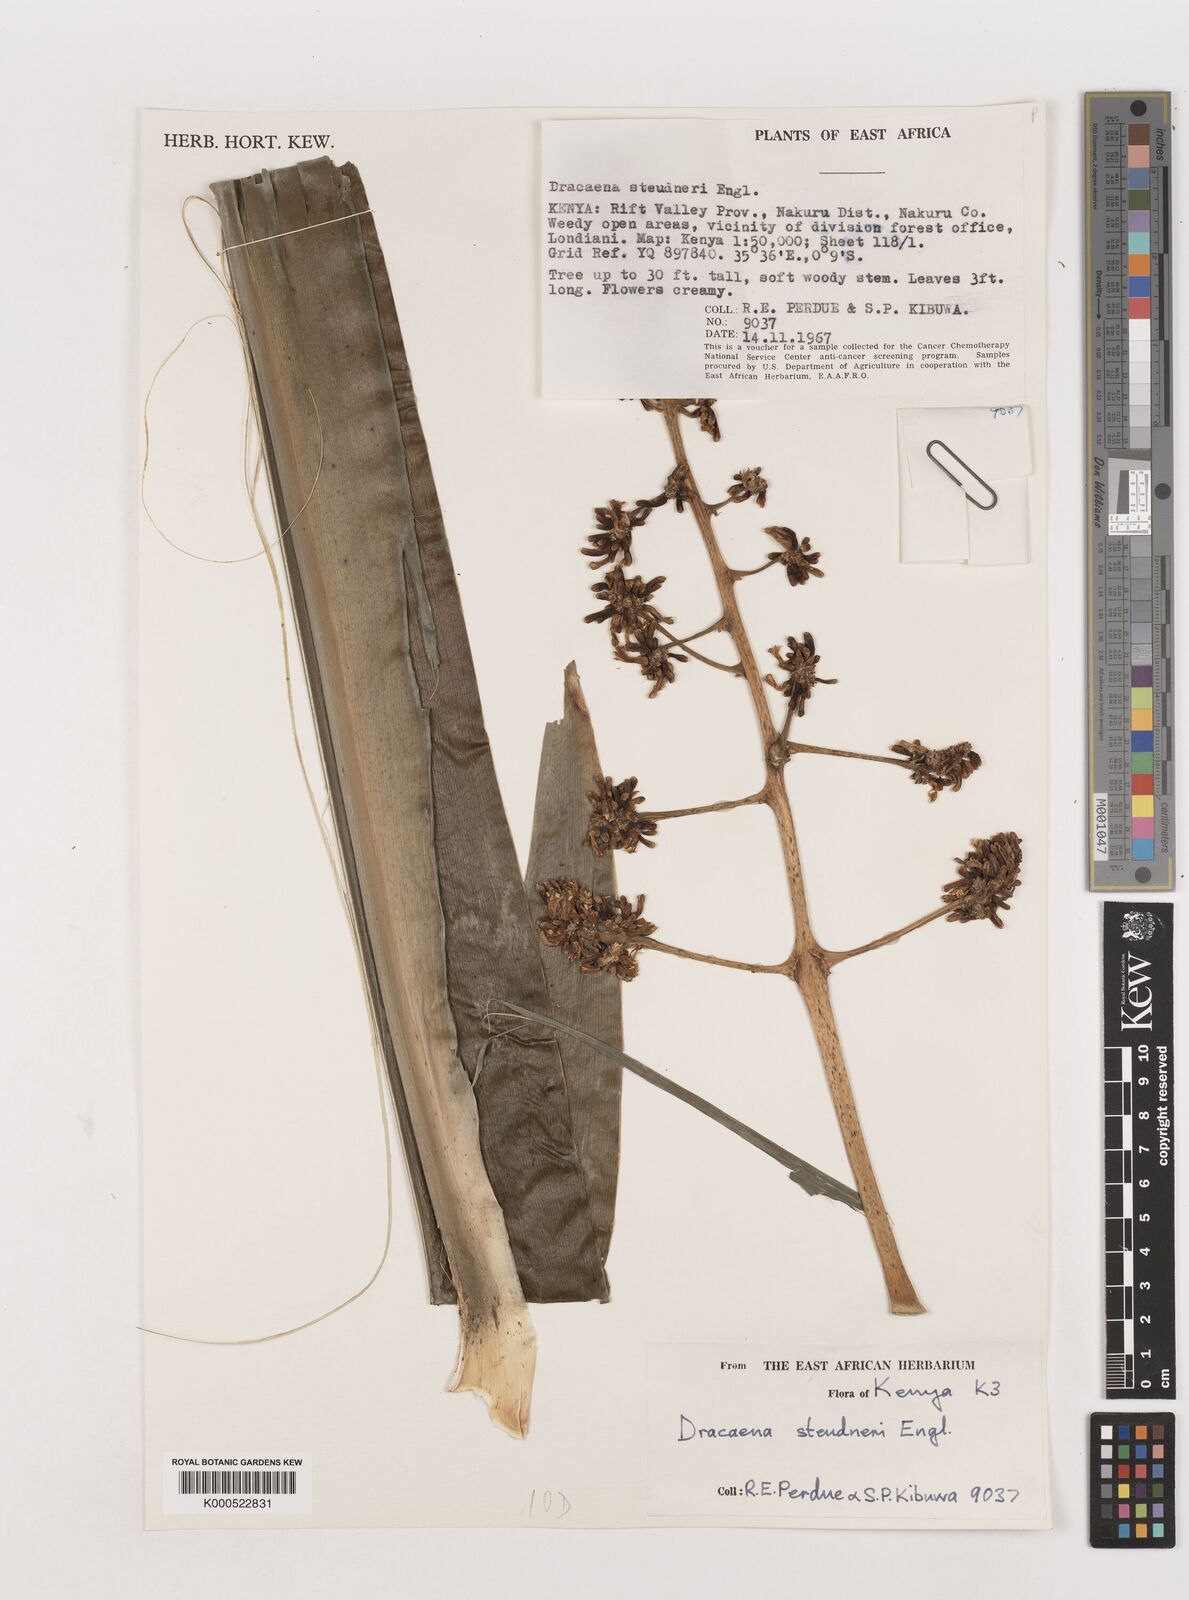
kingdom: Plantae
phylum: Tracheophyta
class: Liliopsida
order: Asparagales
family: Asparagaceae
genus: Dracaena
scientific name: Dracaena steudneri
